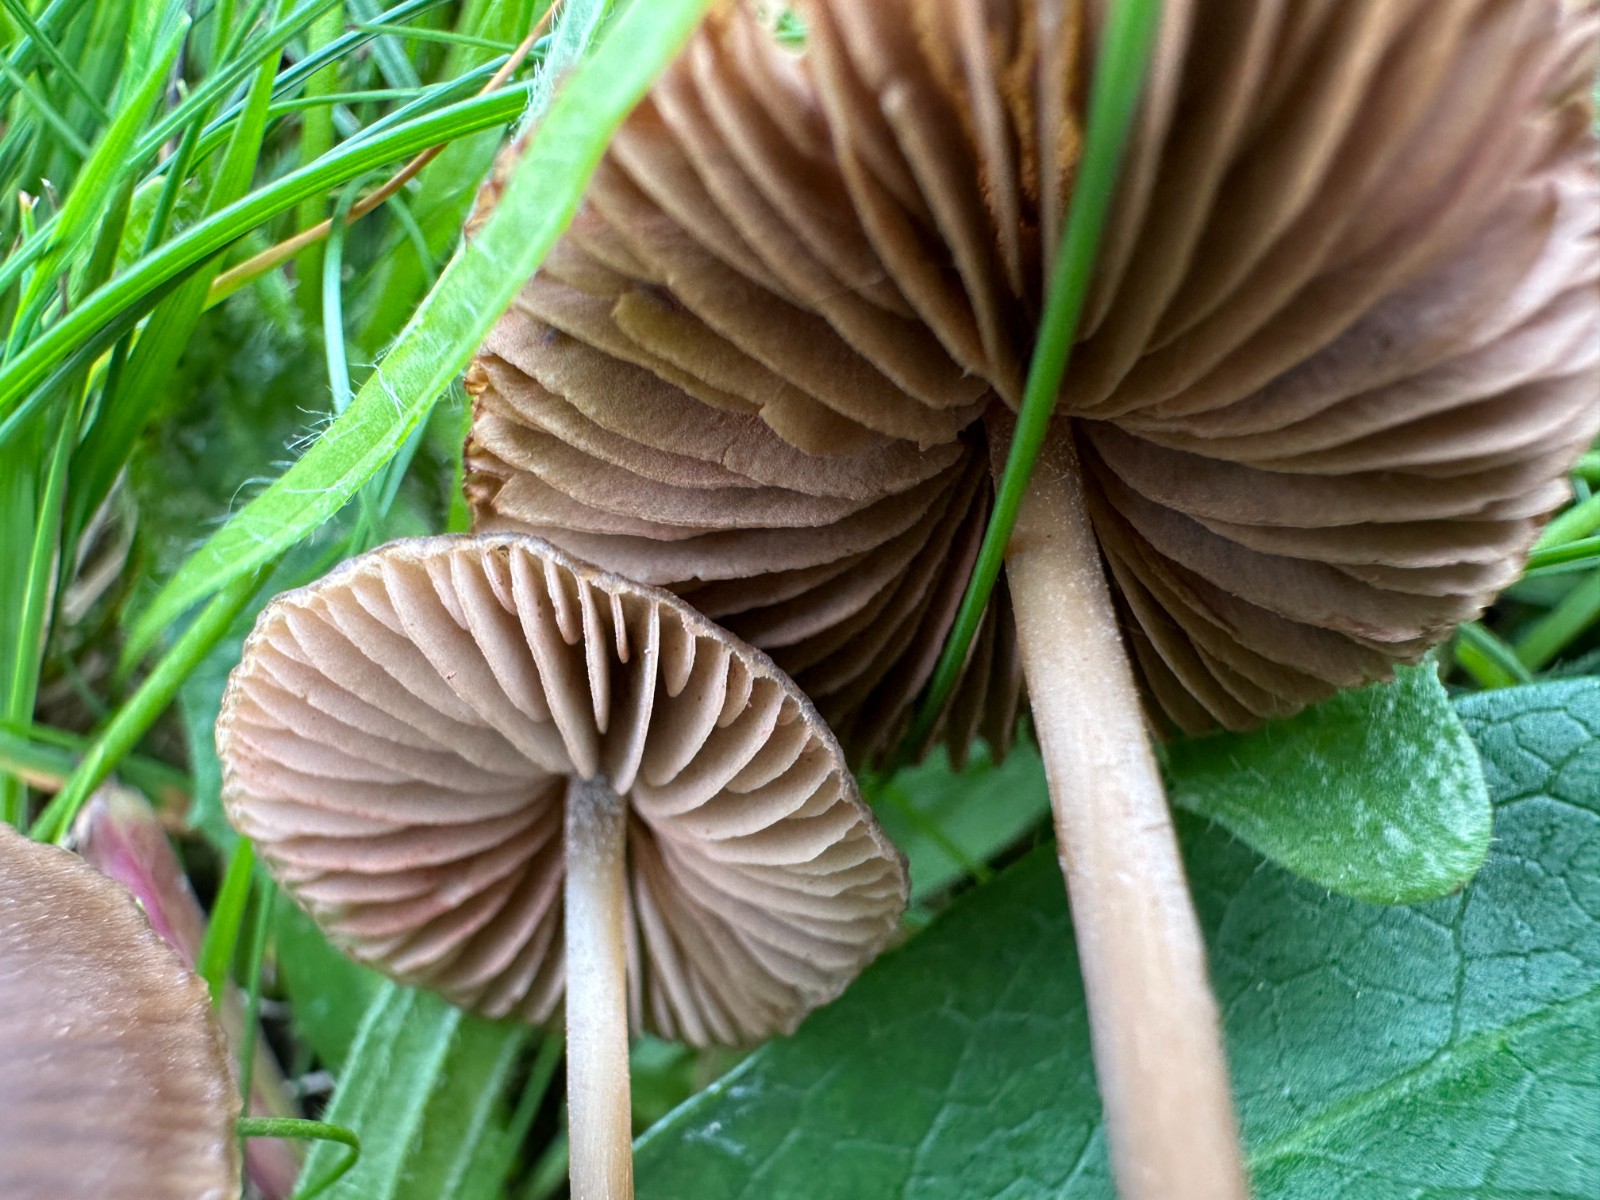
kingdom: Fungi
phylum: Basidiomycota
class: Agaricomycetes
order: Agaricales
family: Entolomataceae
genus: Entoloma
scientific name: Entoloma clandestinum
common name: tykbladet rødblad
